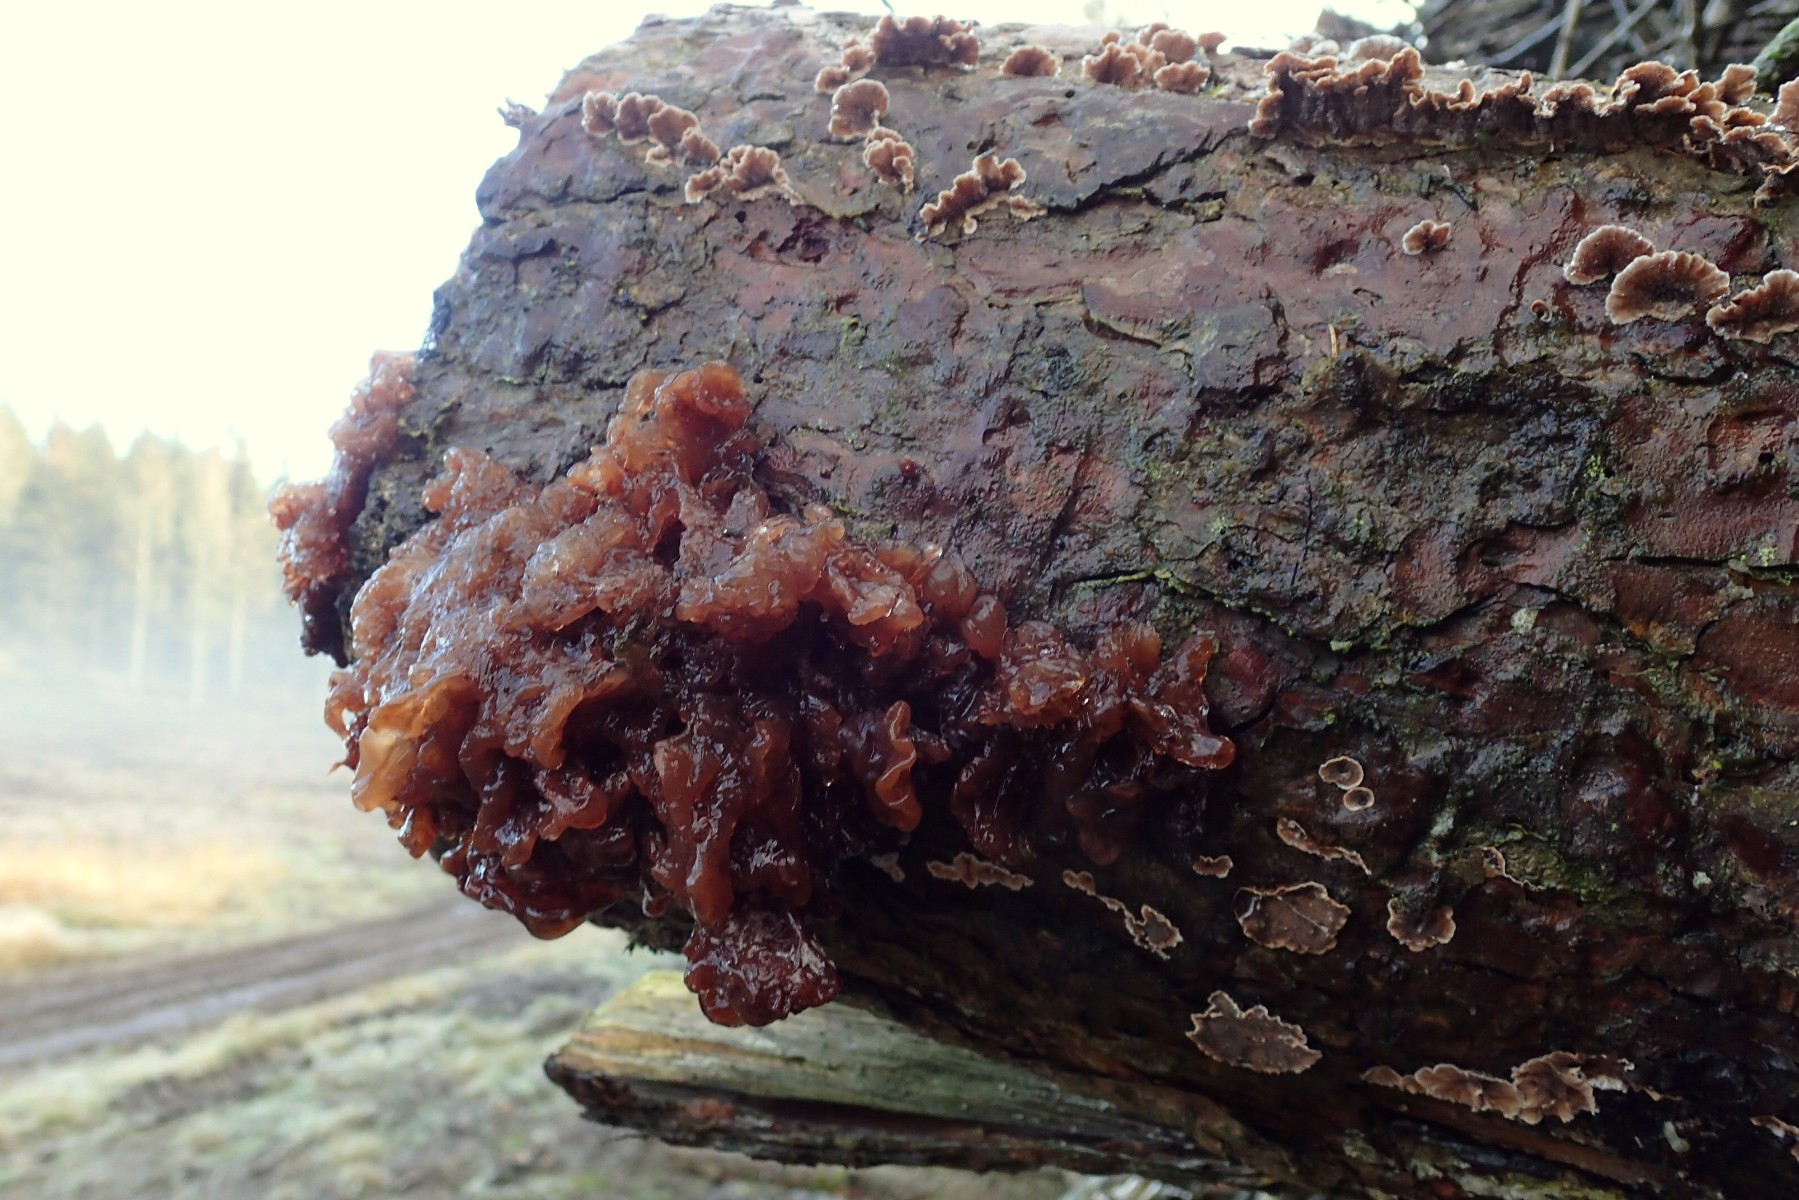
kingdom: Fungi
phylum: Basidiomycota
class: Tremellomycetes
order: Tremellales
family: Tremellaceae
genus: Phaeotremella
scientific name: Phaeotremella foliacea
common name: brun bævresvamp
